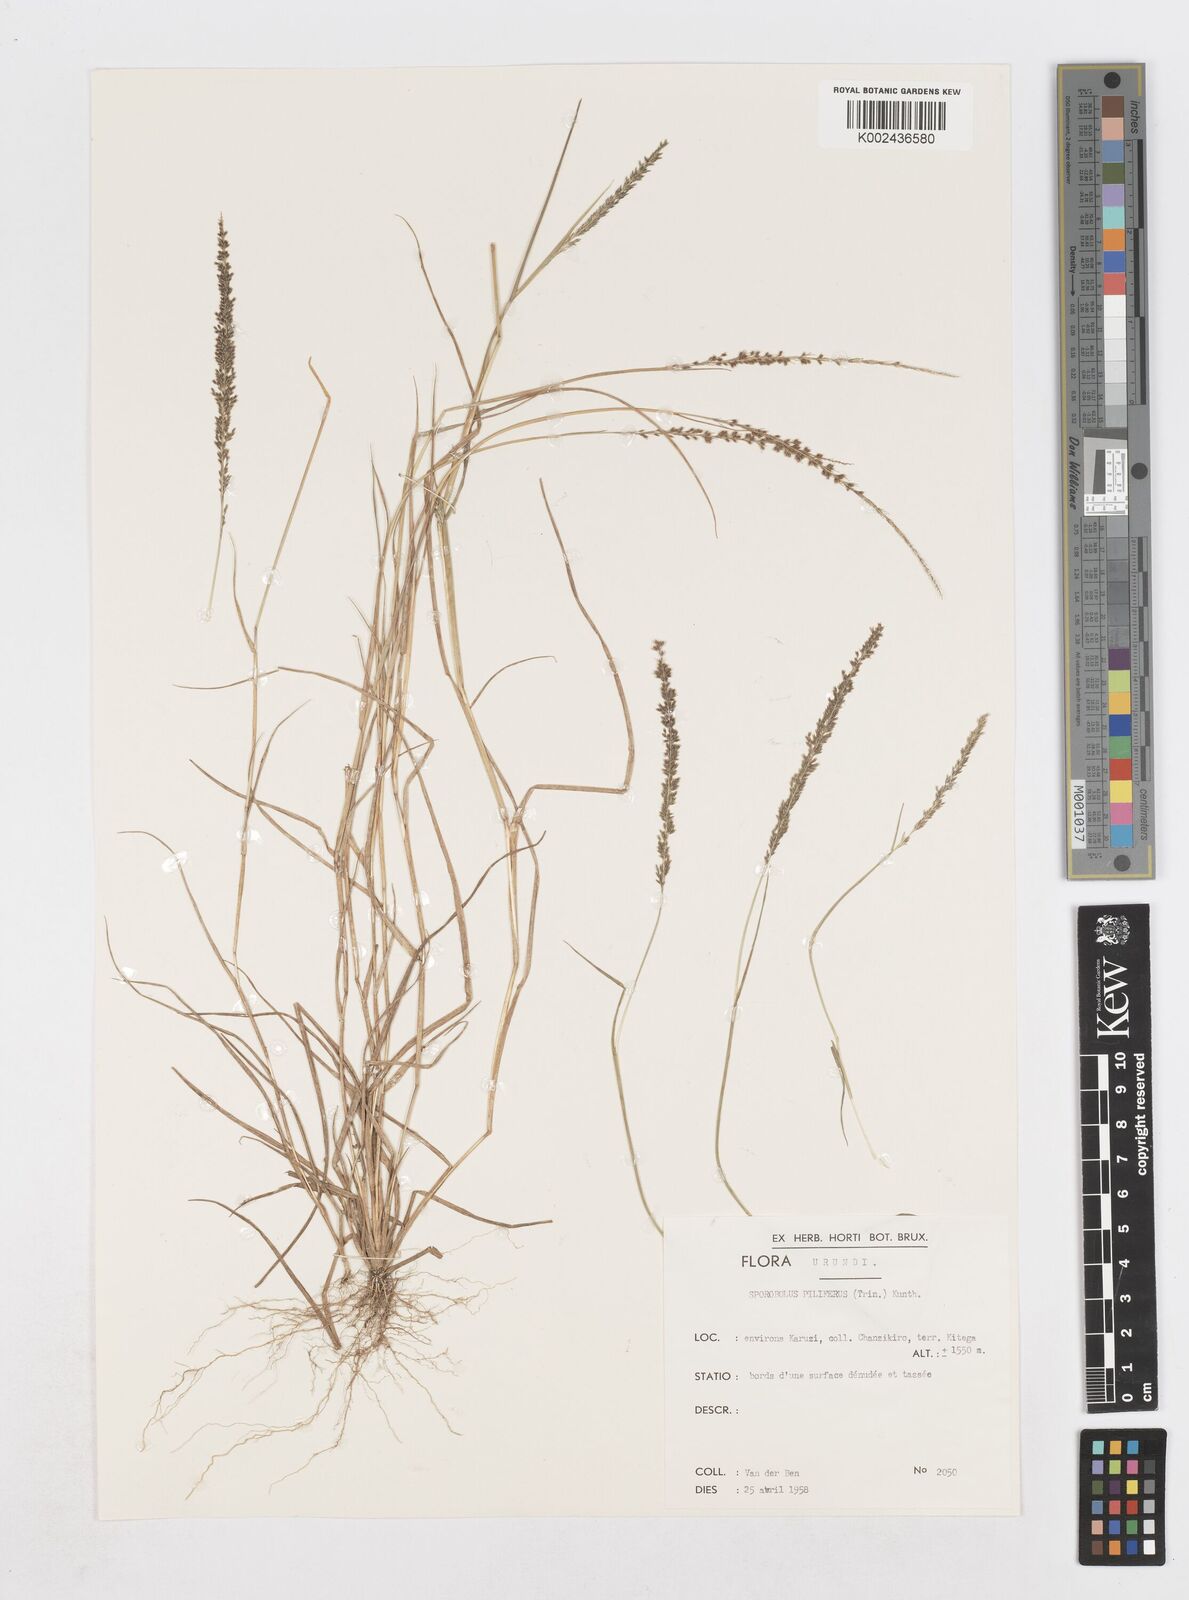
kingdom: Plantae
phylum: Tracheophyta
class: Liliopsida
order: Poales
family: Poaceae
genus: Sporobolus
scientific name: Sporobolus pilifer
